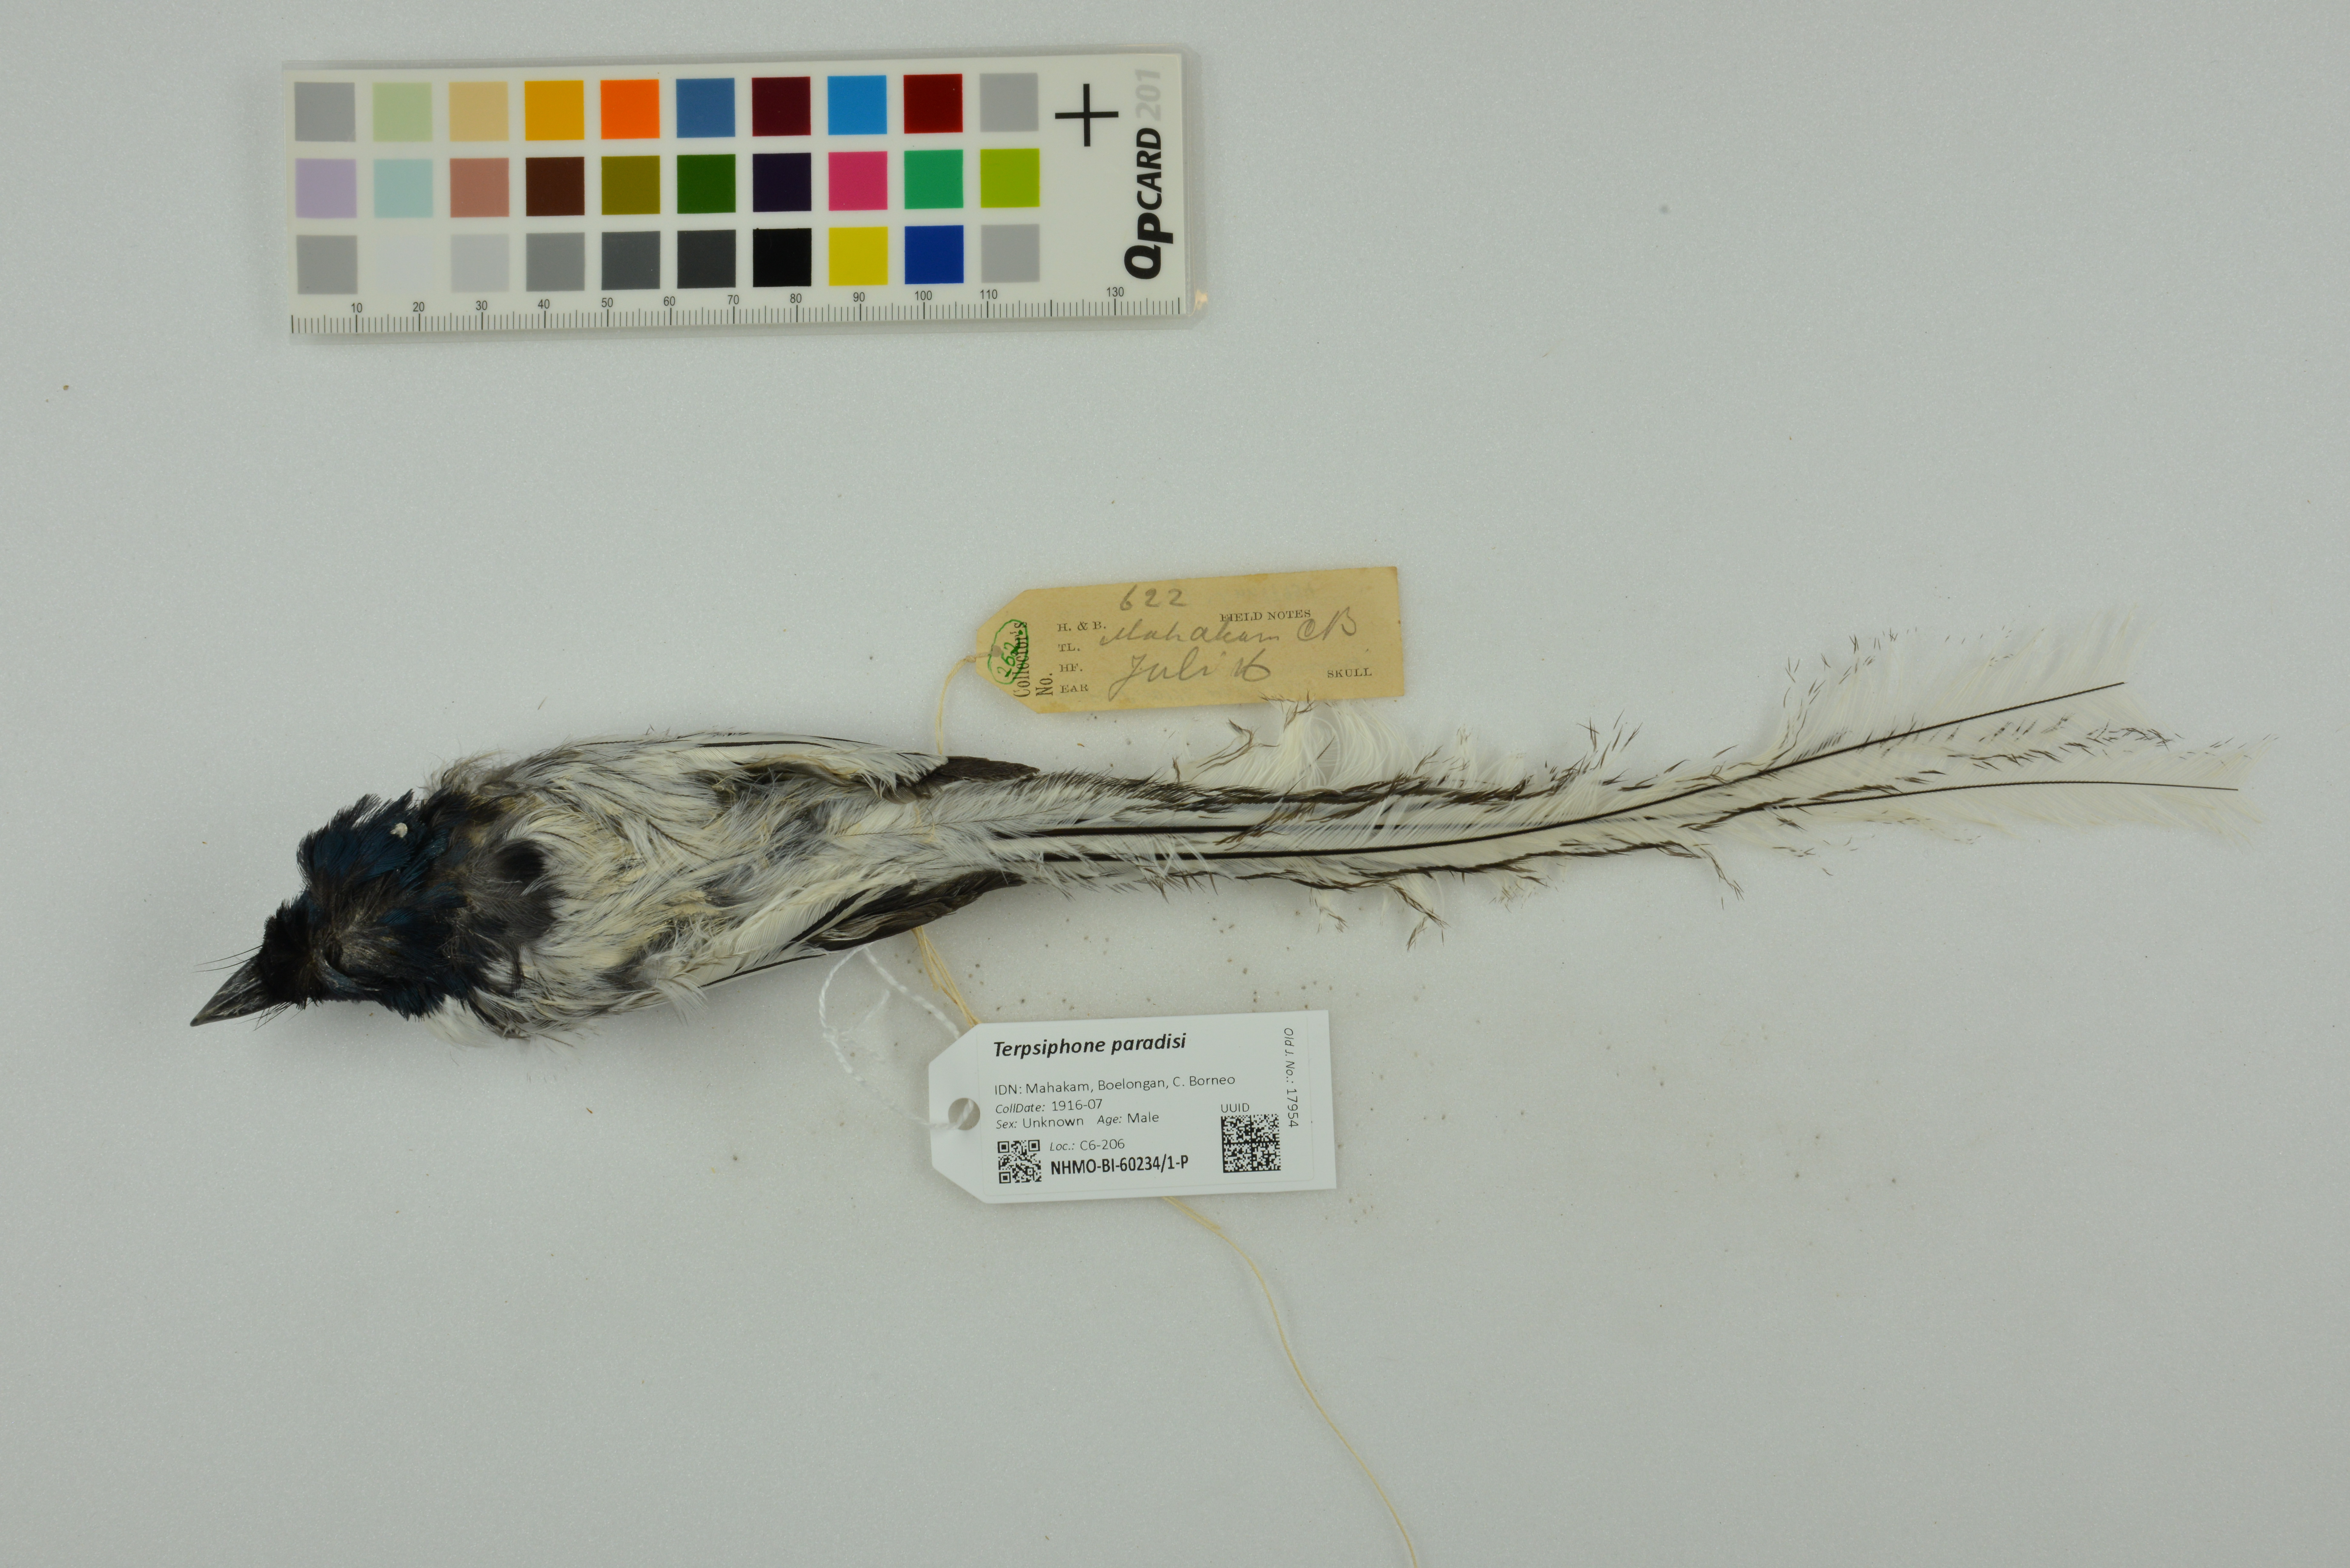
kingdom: Animalia
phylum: Chordata
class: Aves
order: Passeriformes
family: Monarchidae
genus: Terpsiphone
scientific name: Terpsiphone paradisi
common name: Indian paradise flycatcher
